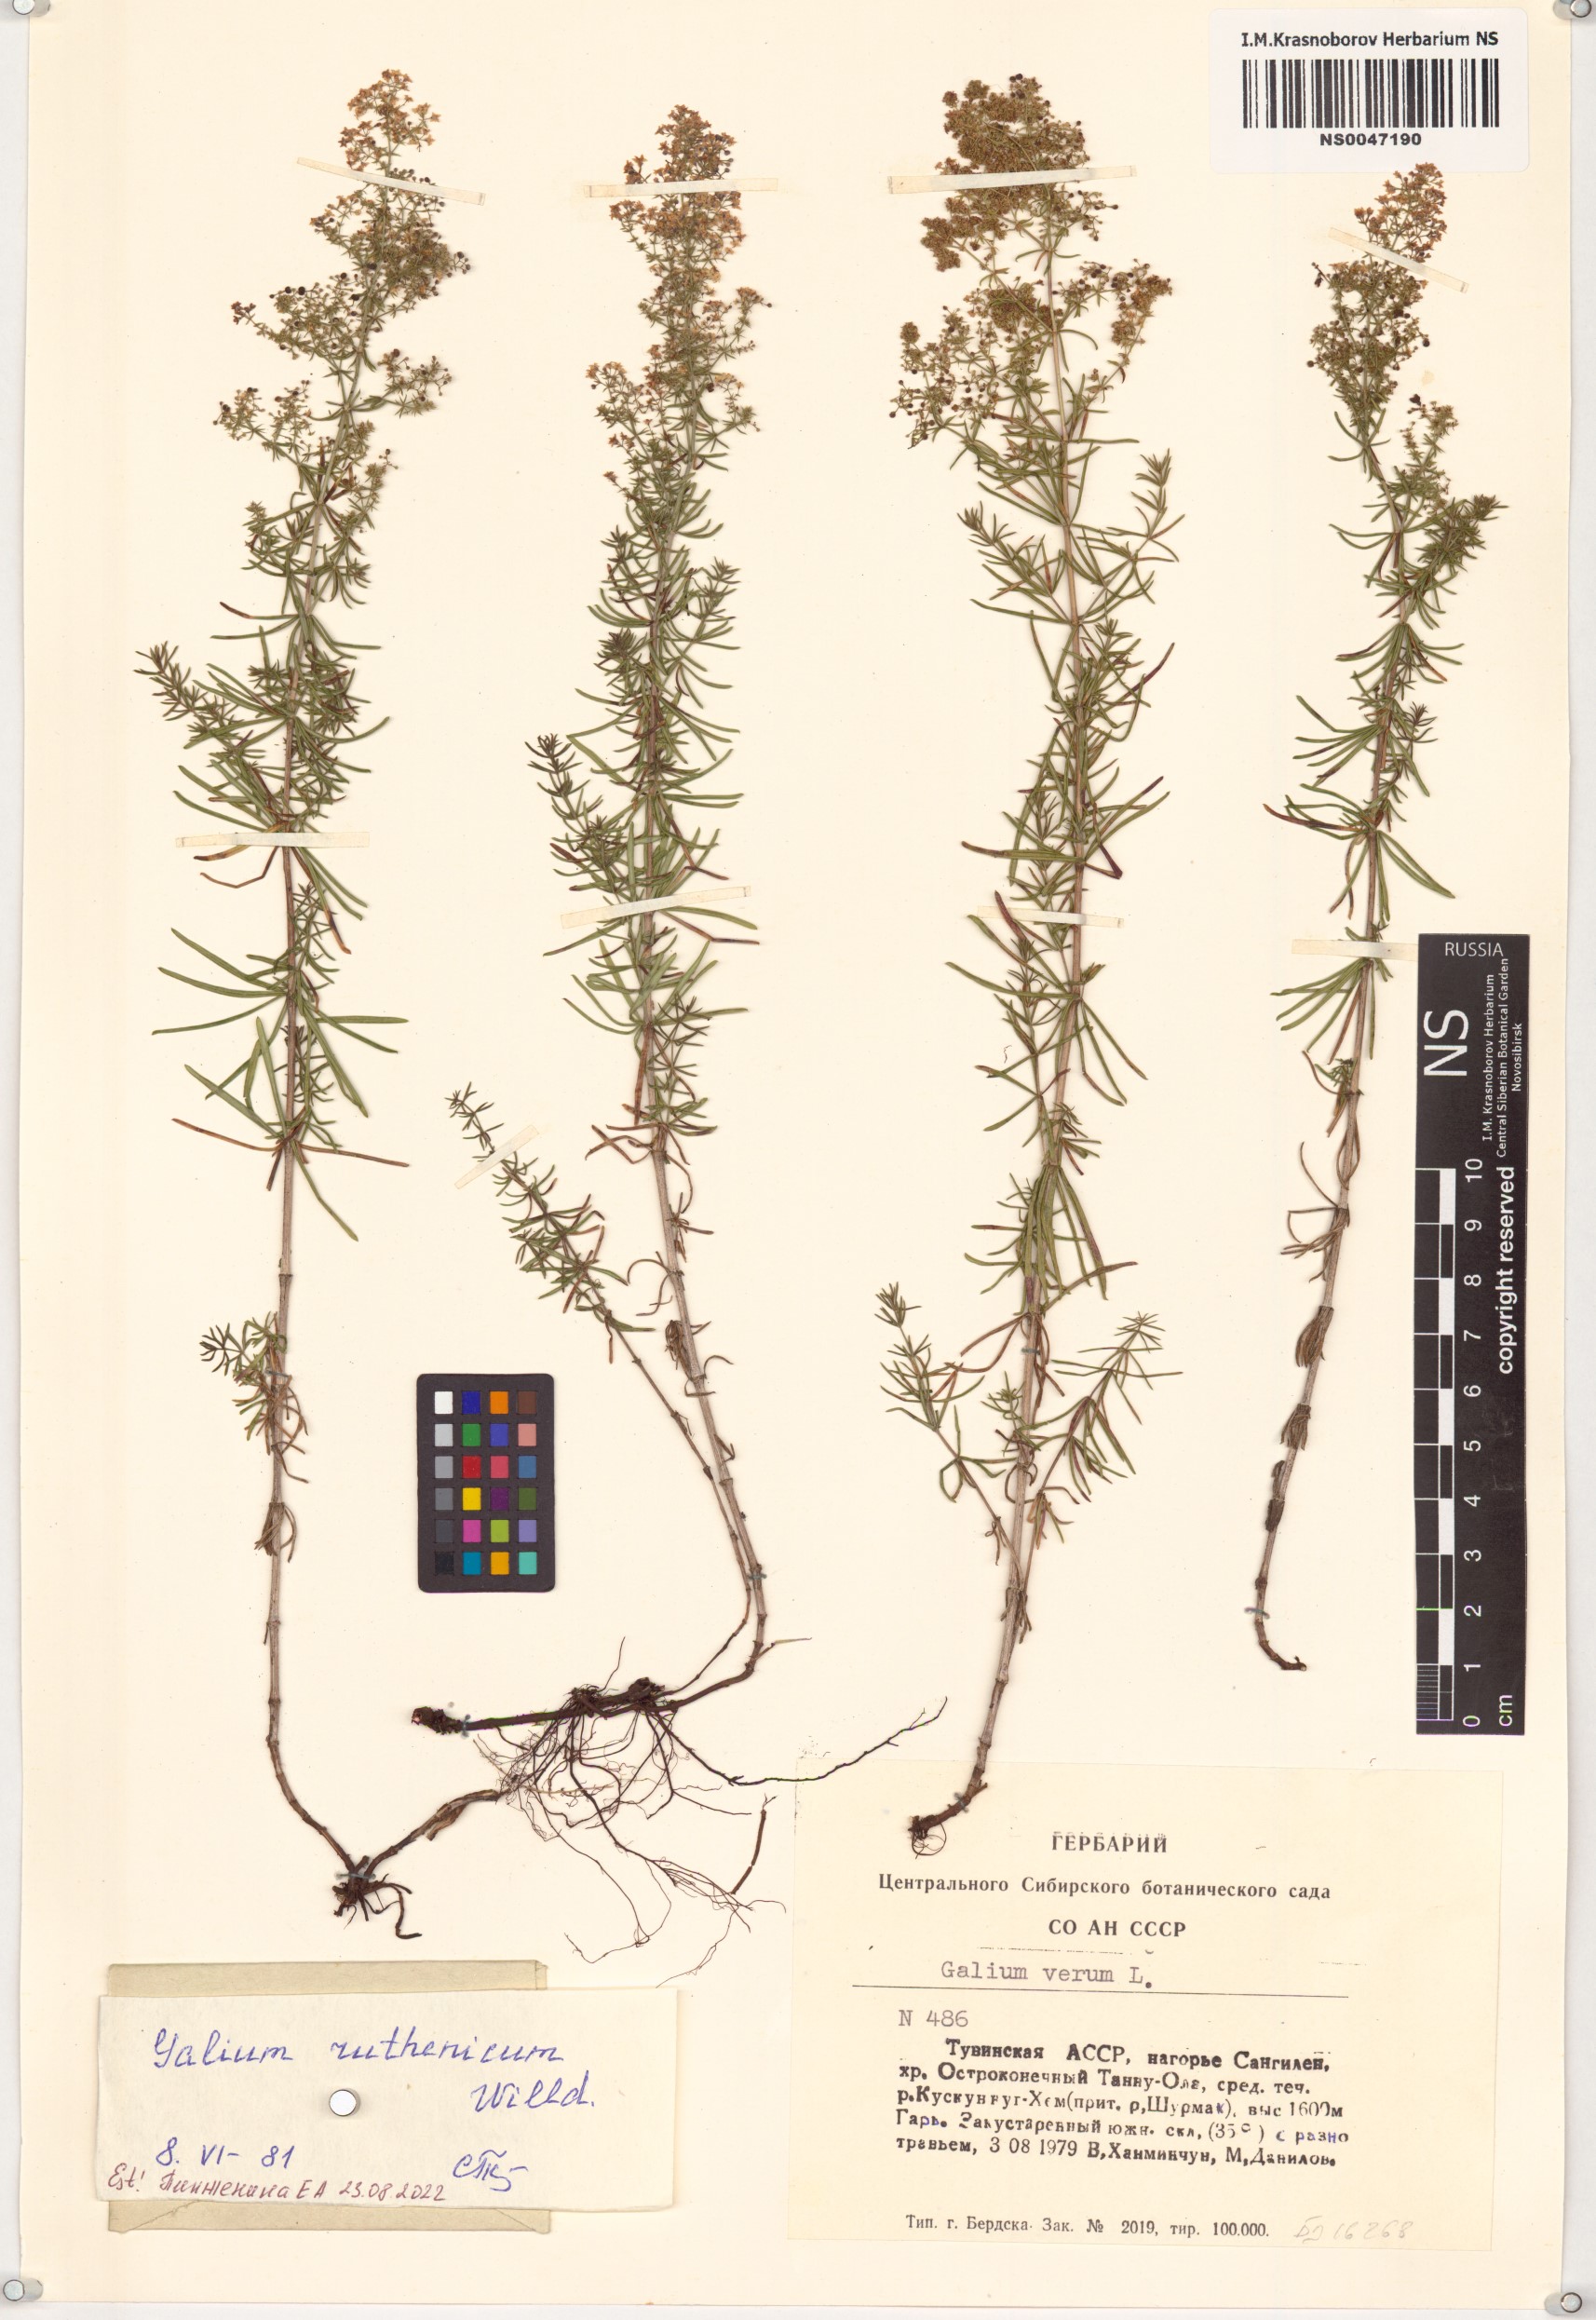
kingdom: Plantae
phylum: Tracheophyta
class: Magnoliopsida
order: Gentianales
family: Rubiaceae
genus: Galium
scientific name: Galium verum
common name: Lady's bedstraw
